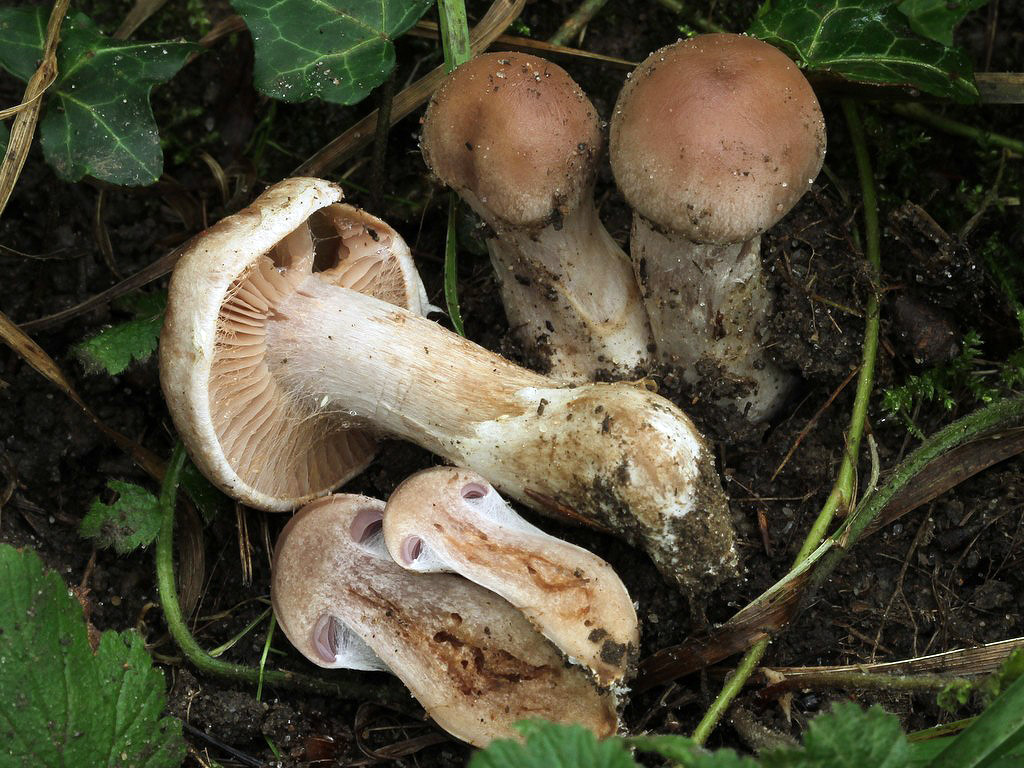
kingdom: Fungi
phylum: Basidiomycota
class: Agaricomycetes
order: Agaricales
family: Cortinariaceae
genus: Cortinarius
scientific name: Cortinarius lucorum
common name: aspe-slørhat
